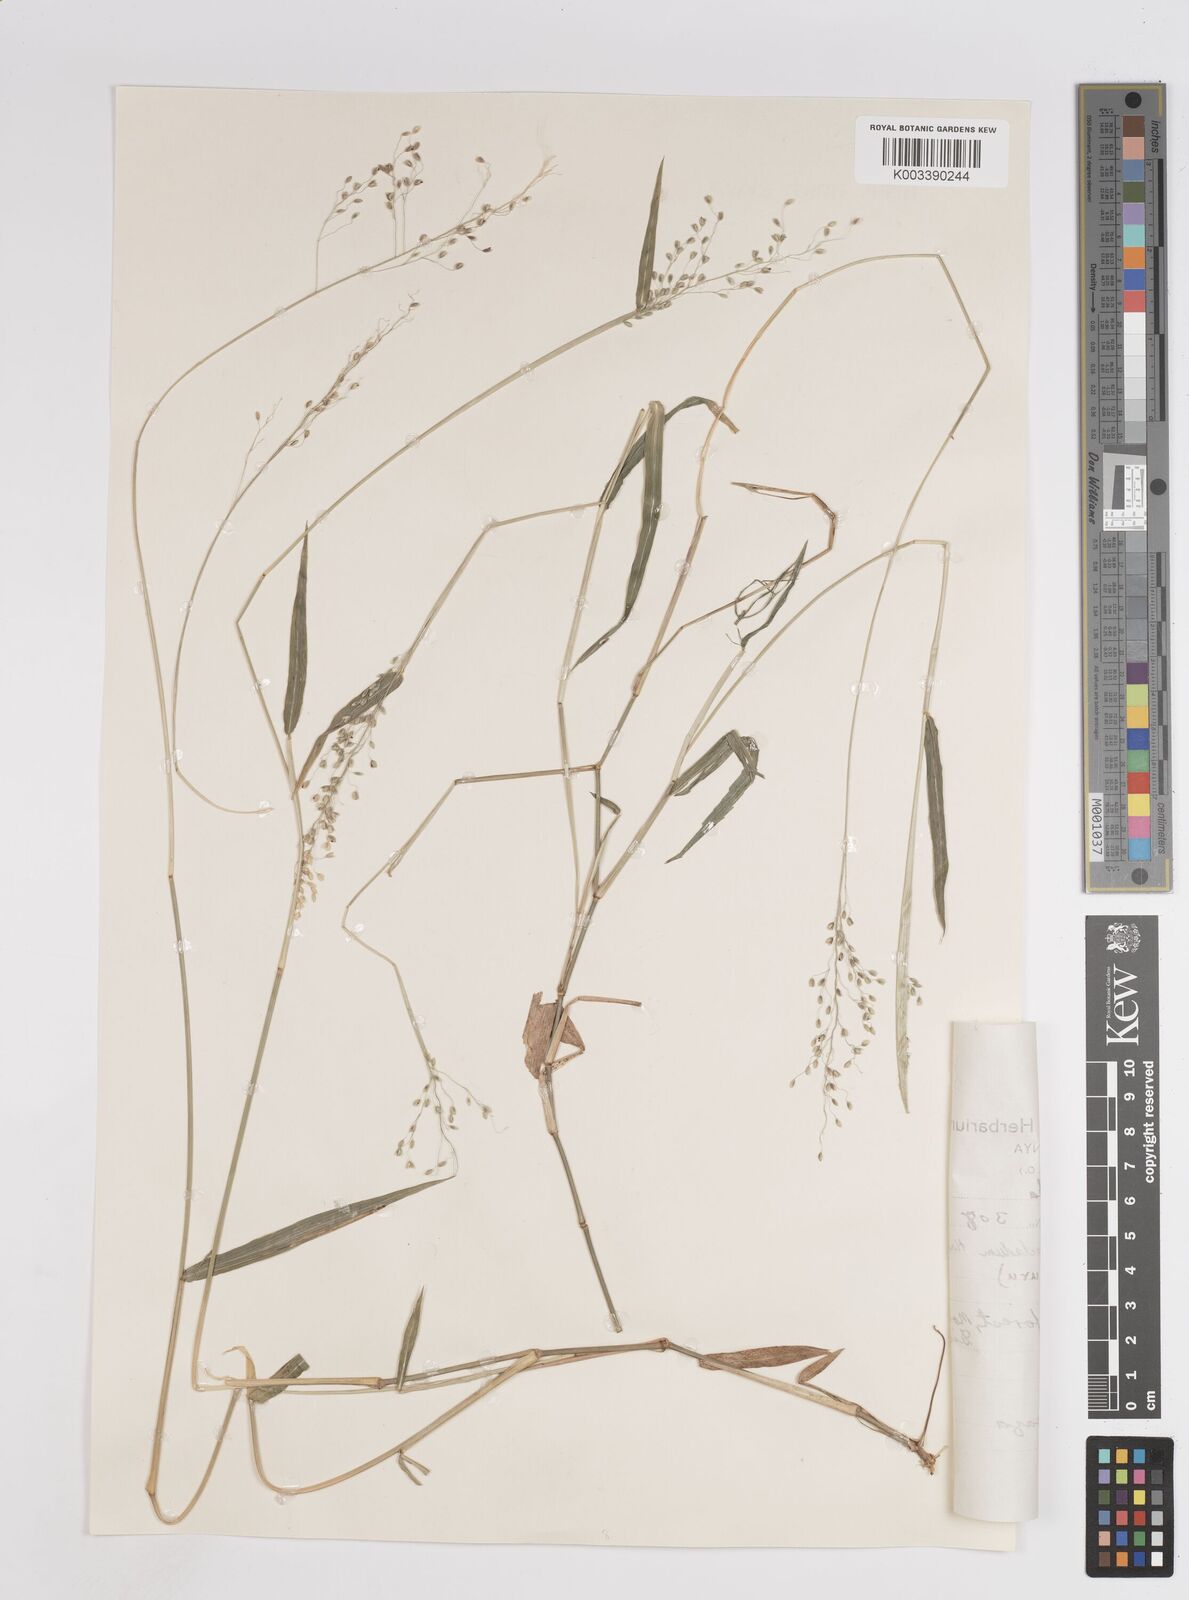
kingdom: Plantae
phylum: Tracheophyta
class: Liliopsida
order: Poales
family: Poaceae
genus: Panicum
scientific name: Panicum trichocladum
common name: Donkey grass
